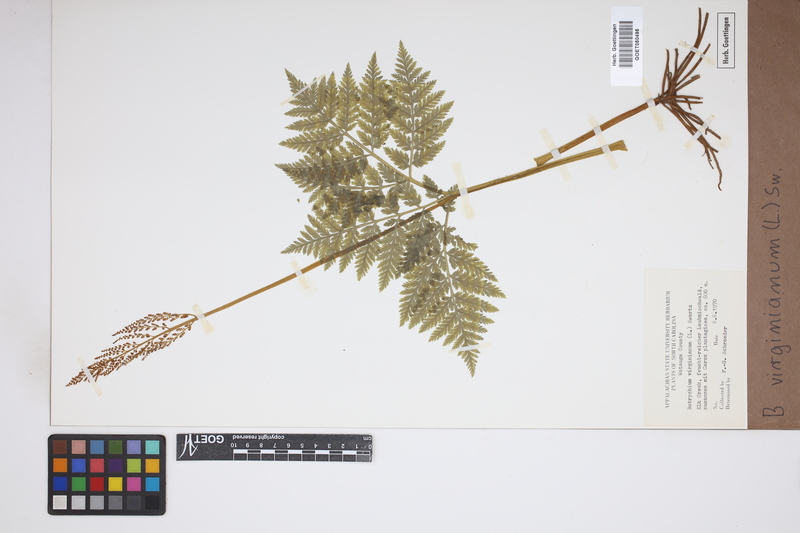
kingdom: Plantae
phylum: Tracheophyta
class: Polypodiopsida
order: Ophioglossales
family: Ophioglossaceae
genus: Botrychium
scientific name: Botrychium virginianum
